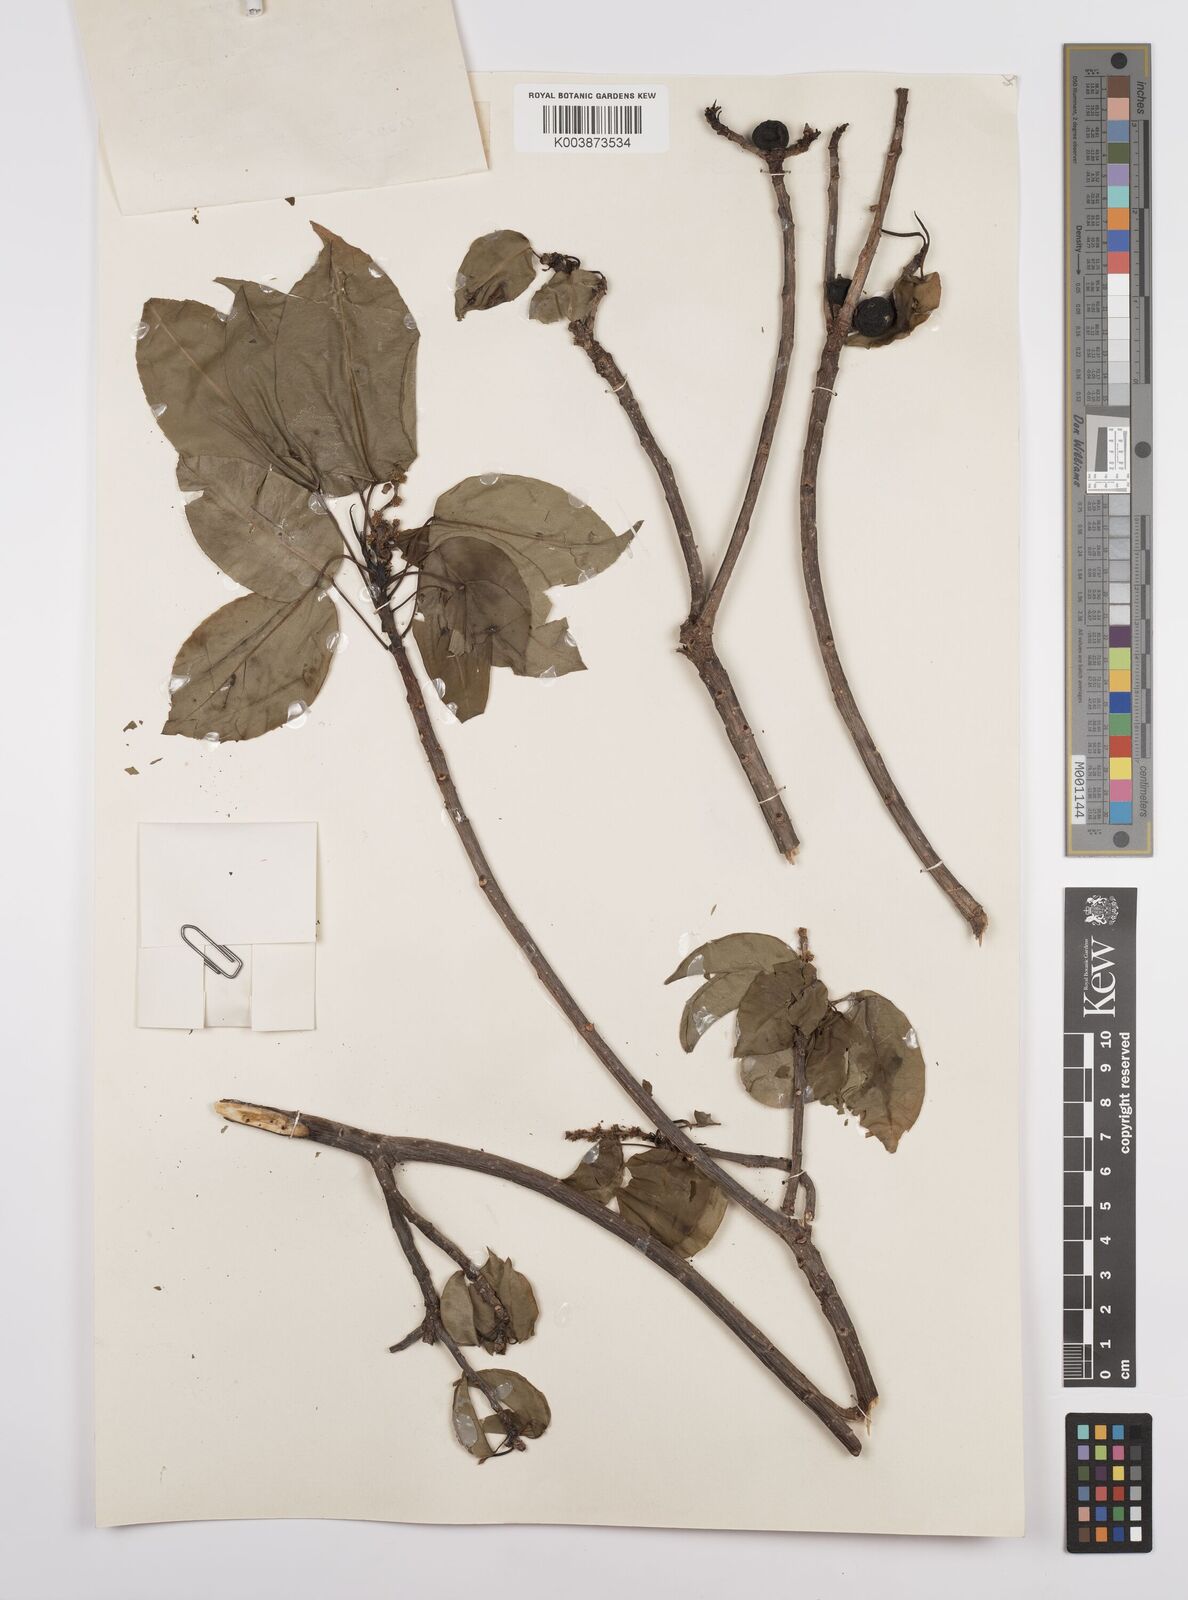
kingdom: Plantae
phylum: Tracheophyta
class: Magnoliopsida
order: Malpighiales
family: Euphorbiaceae
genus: Hippomane
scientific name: Hippomane mancinella
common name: Manchineel
